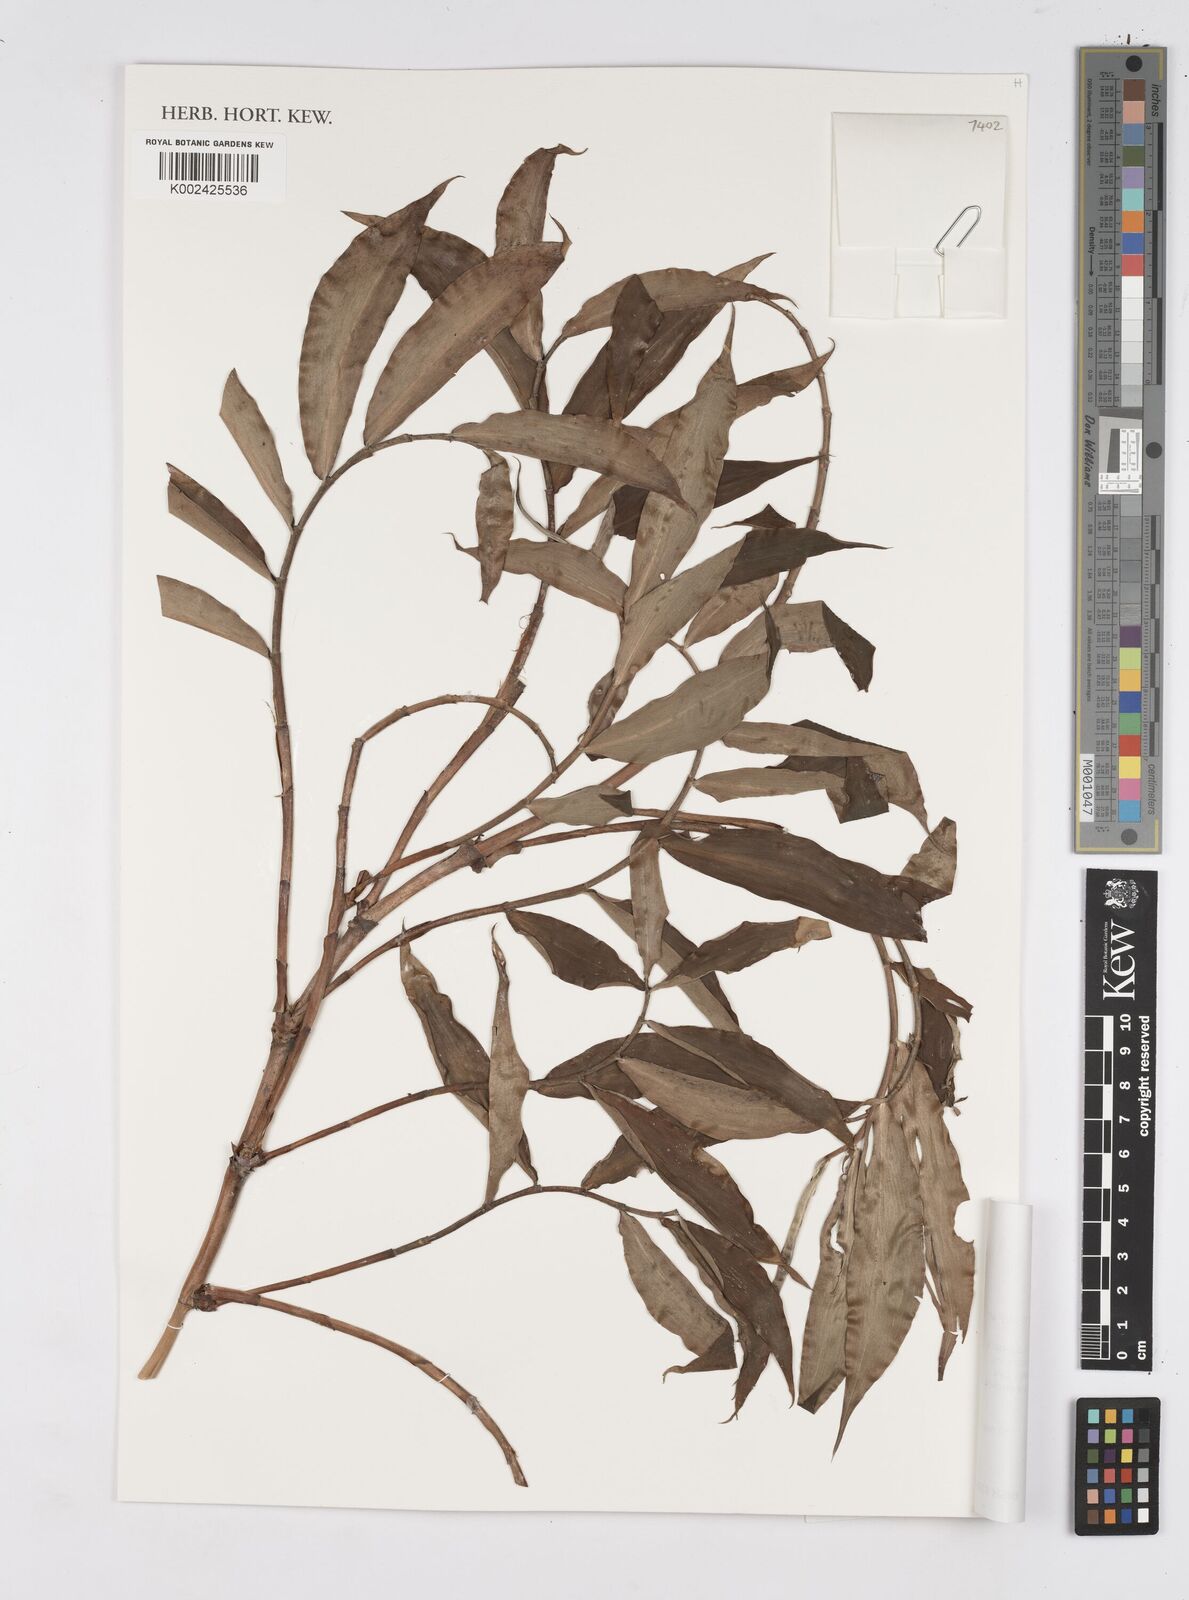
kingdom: Plantae
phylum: Tracheophyta
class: Liliopsida
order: Zingiberales
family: Costaceae
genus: Tapeinochilos
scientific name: Tapeinochilos
